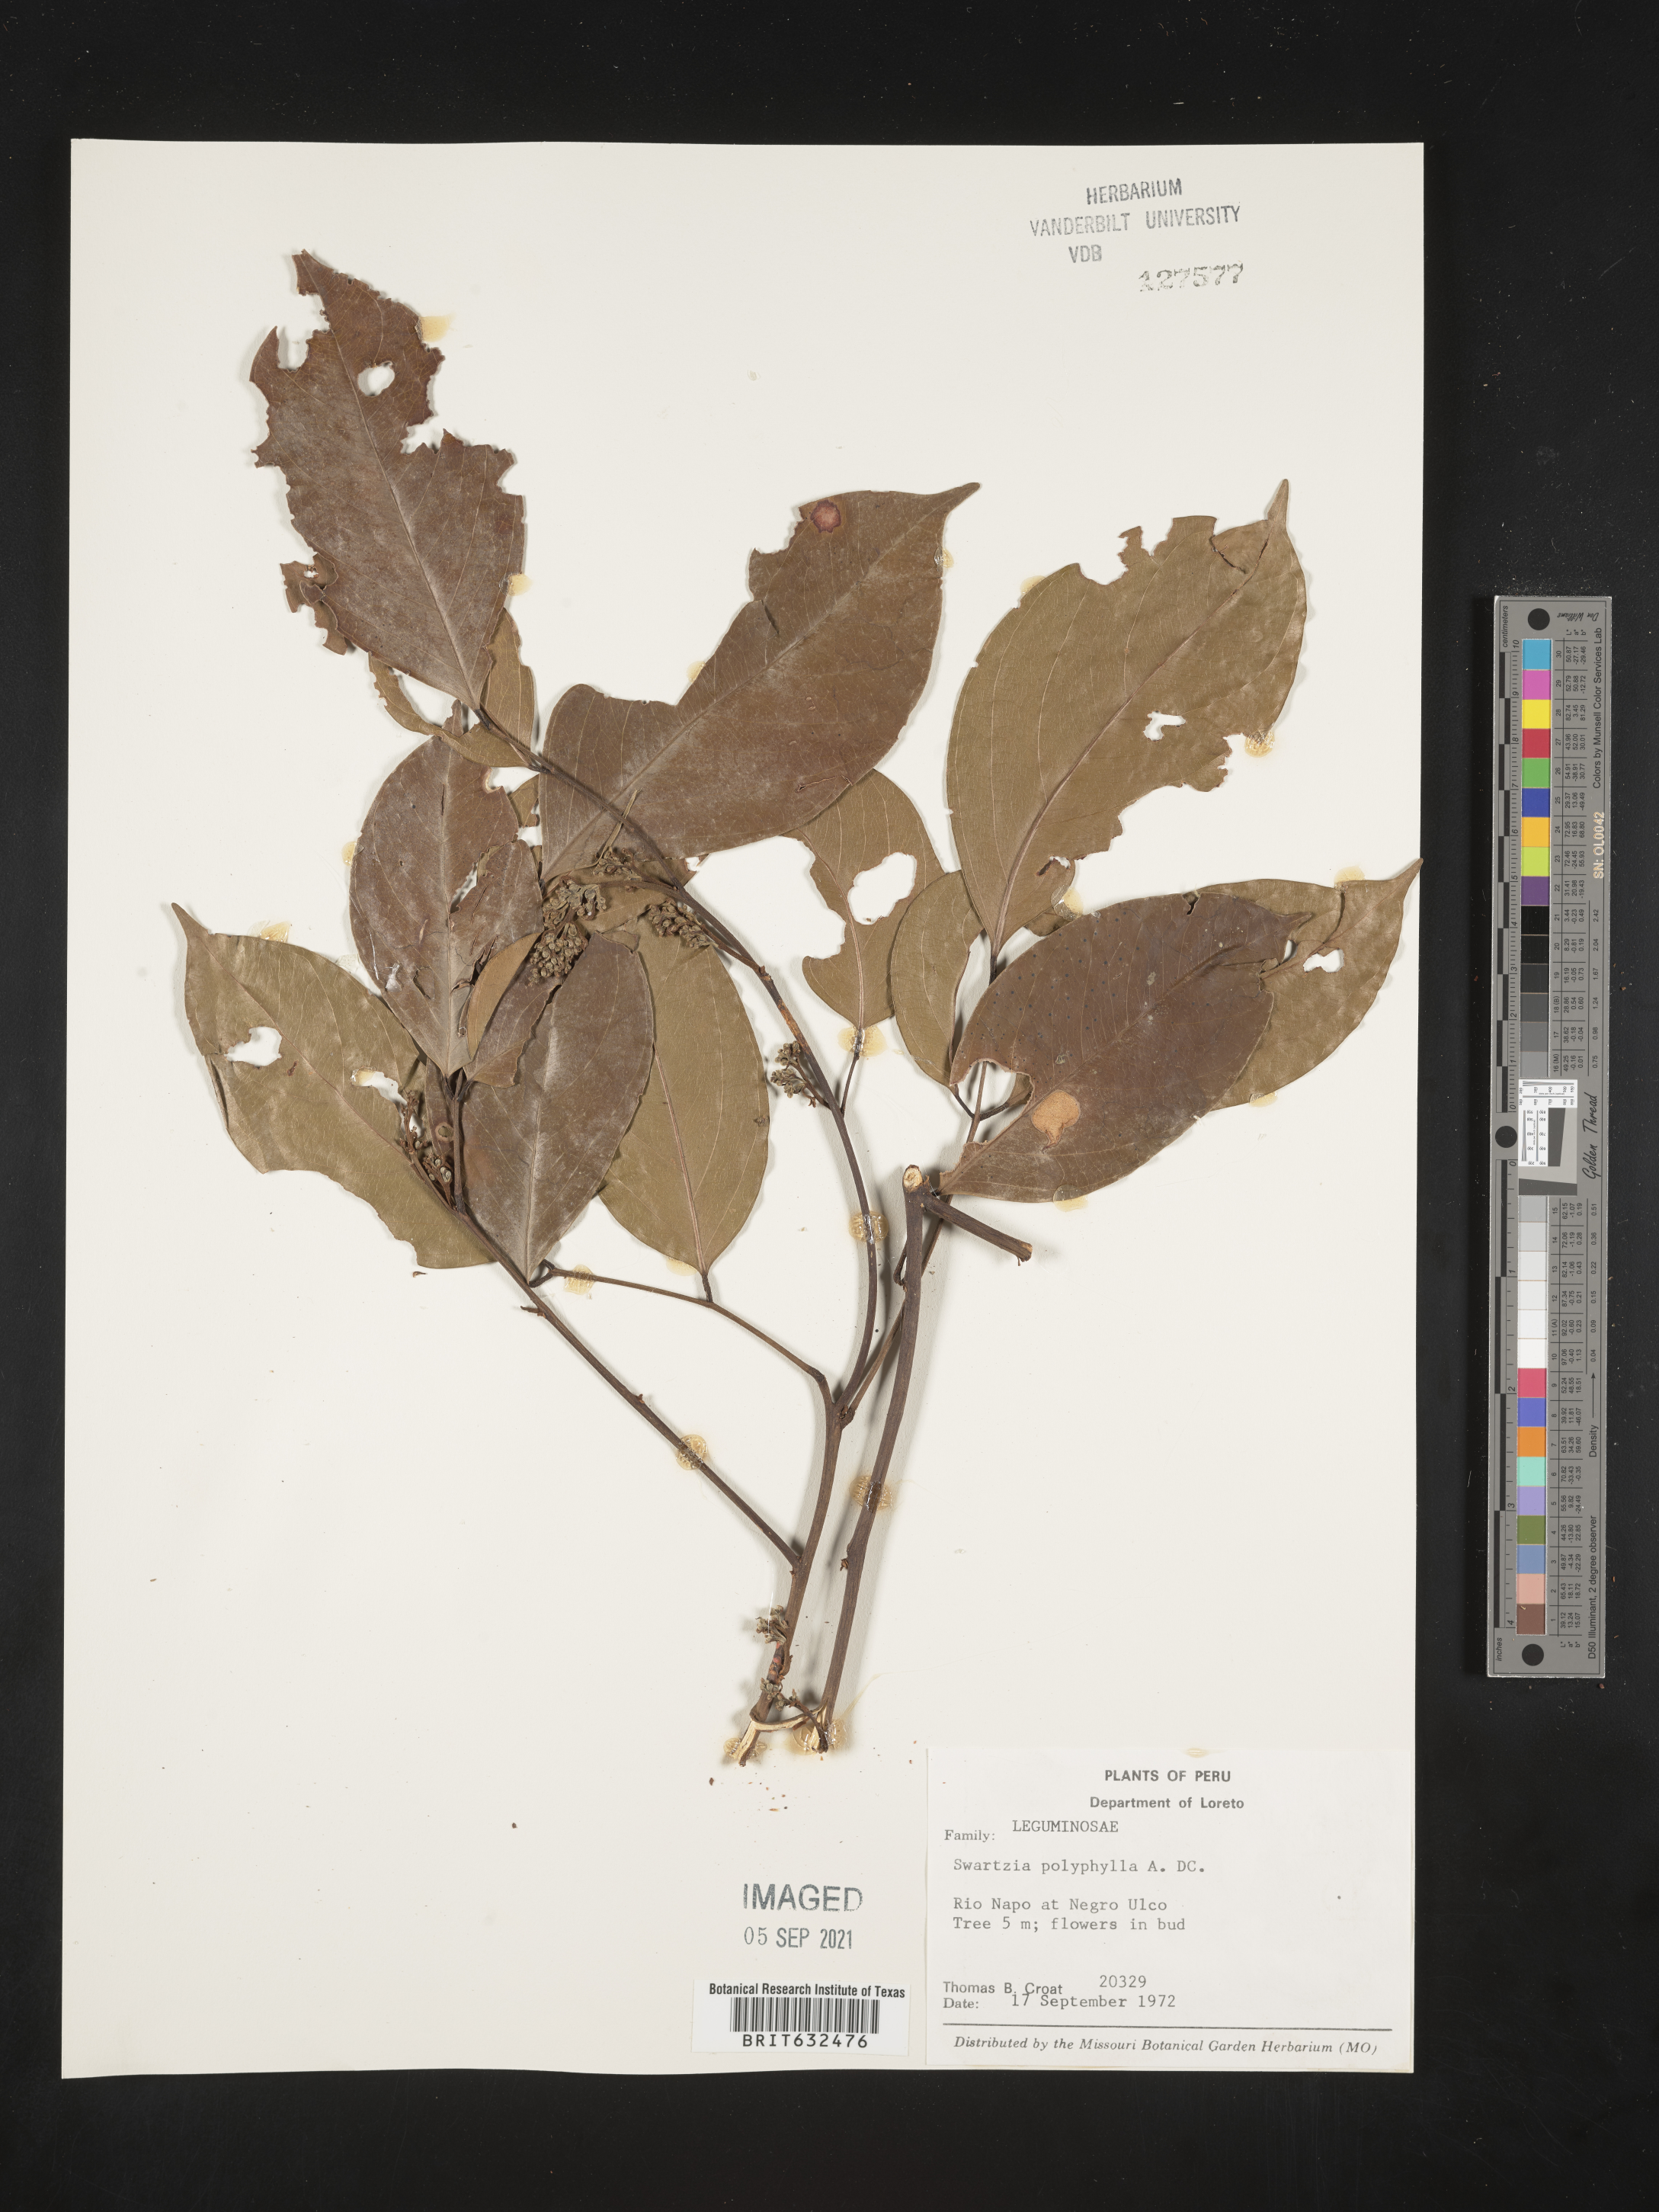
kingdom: Plantae
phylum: Tracheophyta
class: Magnoliopsida
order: Fabales
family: Fabaceae
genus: Swartzia
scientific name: Swartzia
